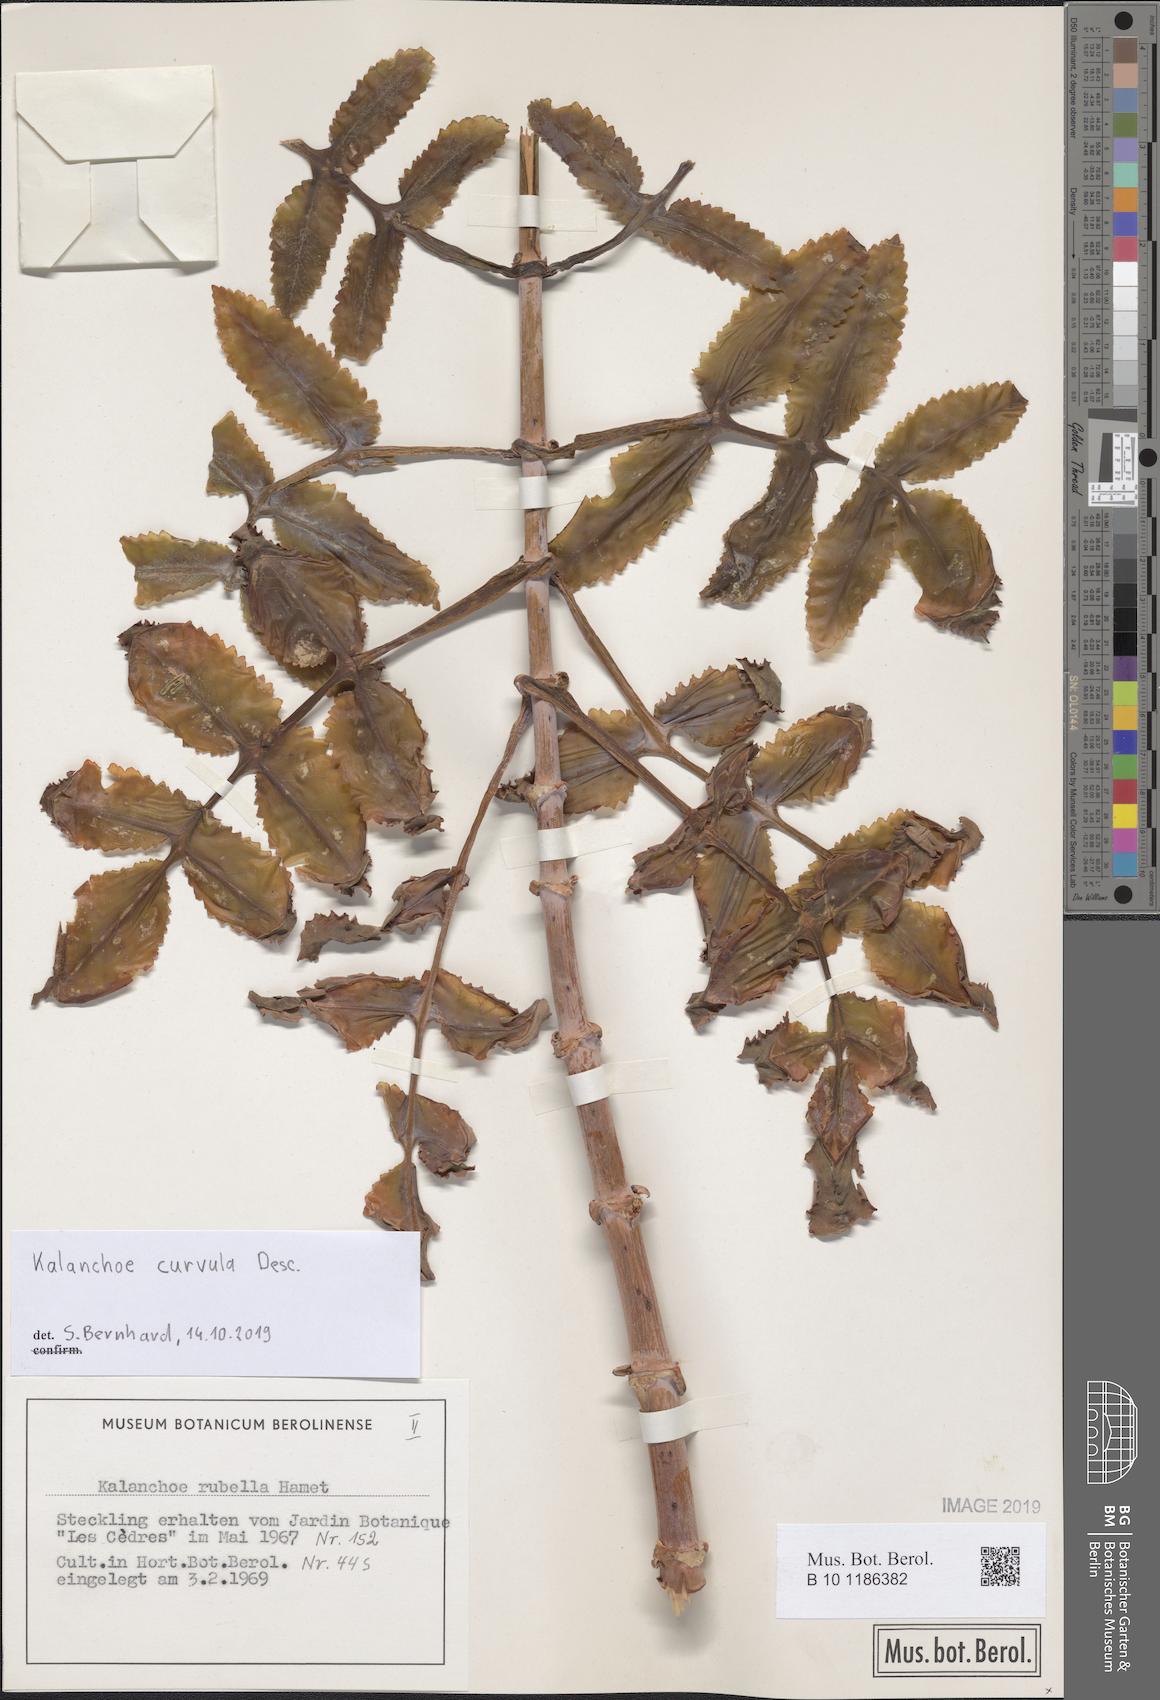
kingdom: Plantae
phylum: Tracheophyta
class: Magnoliopsida
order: Saxifragales
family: Crassulaceae
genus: Kalanchoe
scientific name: Kalanchoe curvula
